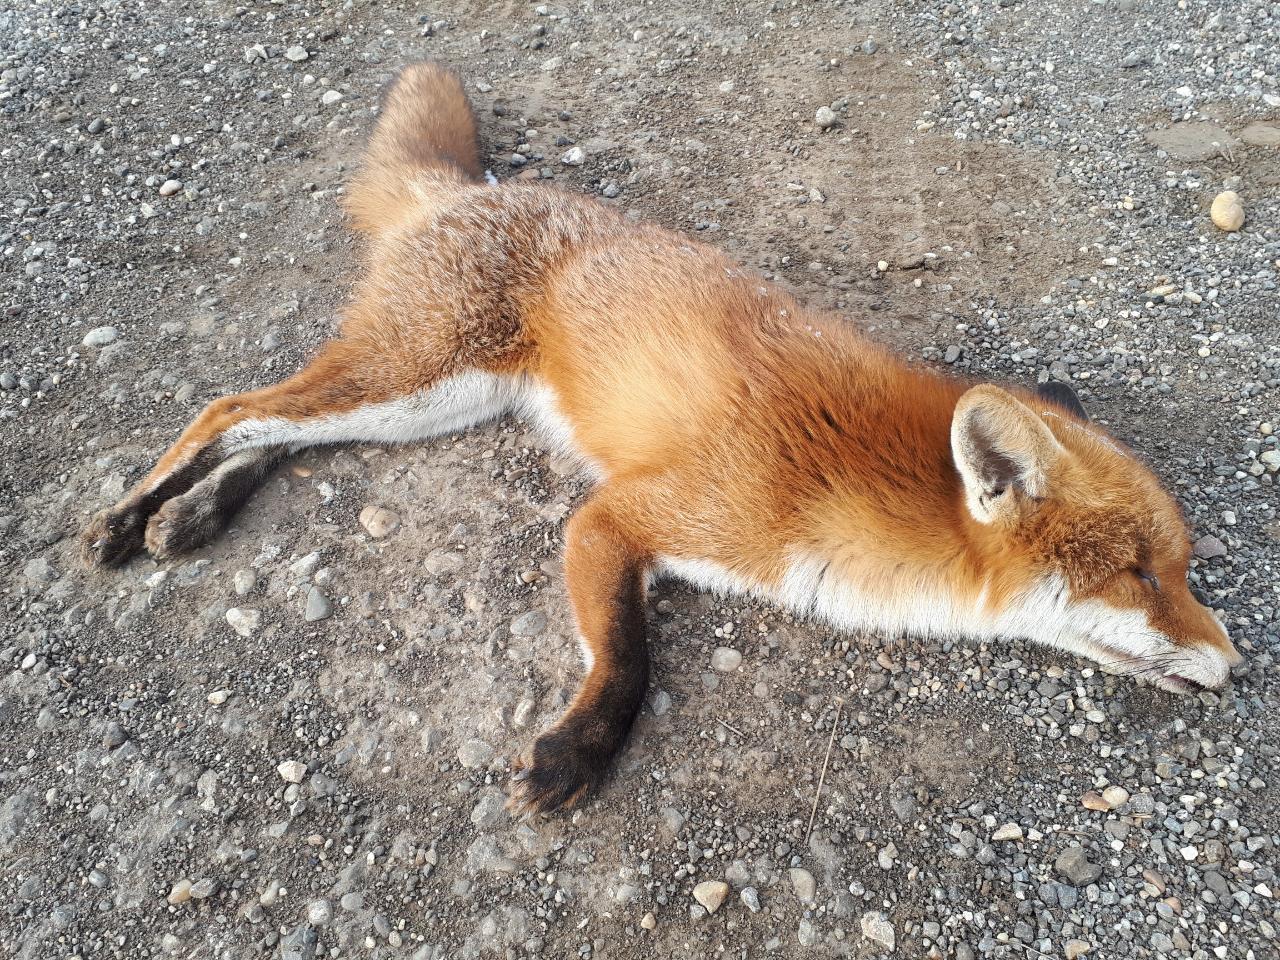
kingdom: Animalia
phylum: Chordata
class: Mammalia
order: Carnivora
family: Canidae
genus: Vulpes
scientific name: Vulpes vulpes
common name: Red fox
